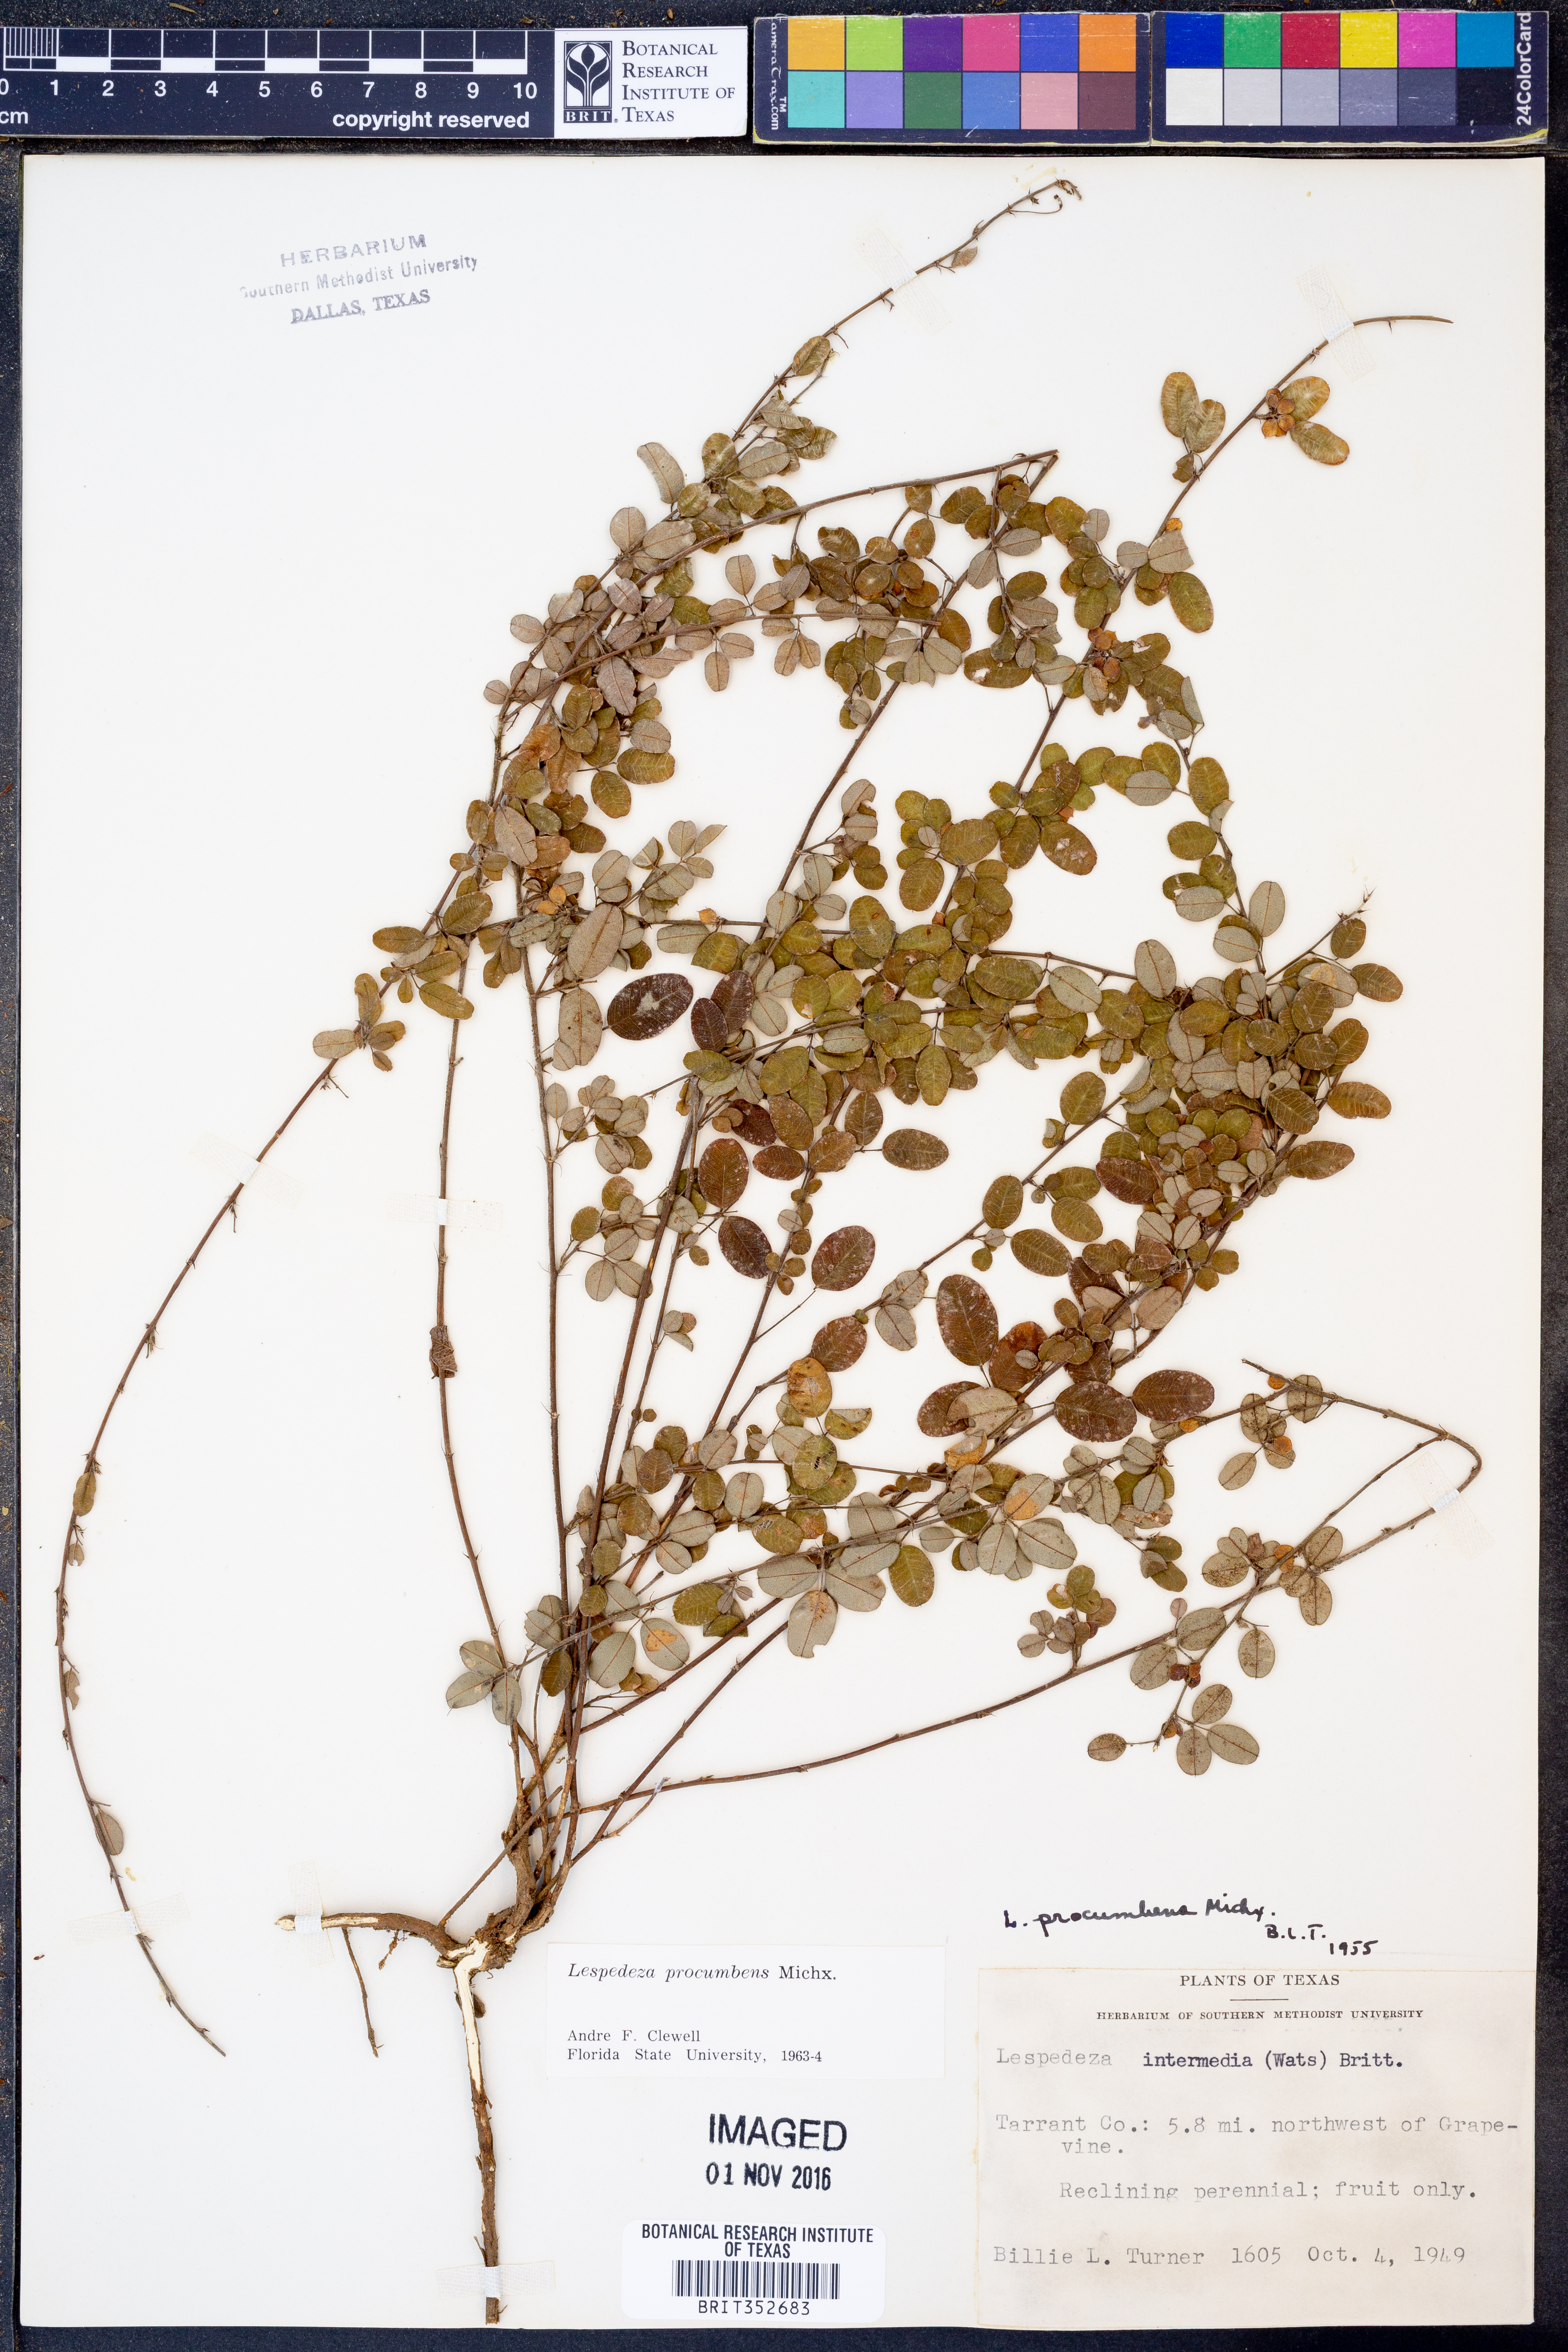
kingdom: Plantae
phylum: Tracheophyta
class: Magnoliopsida
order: Fabales
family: Fabaceae
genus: Lespedeza
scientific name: Lespedeza procumbens
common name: Downy trailing bush-clover
